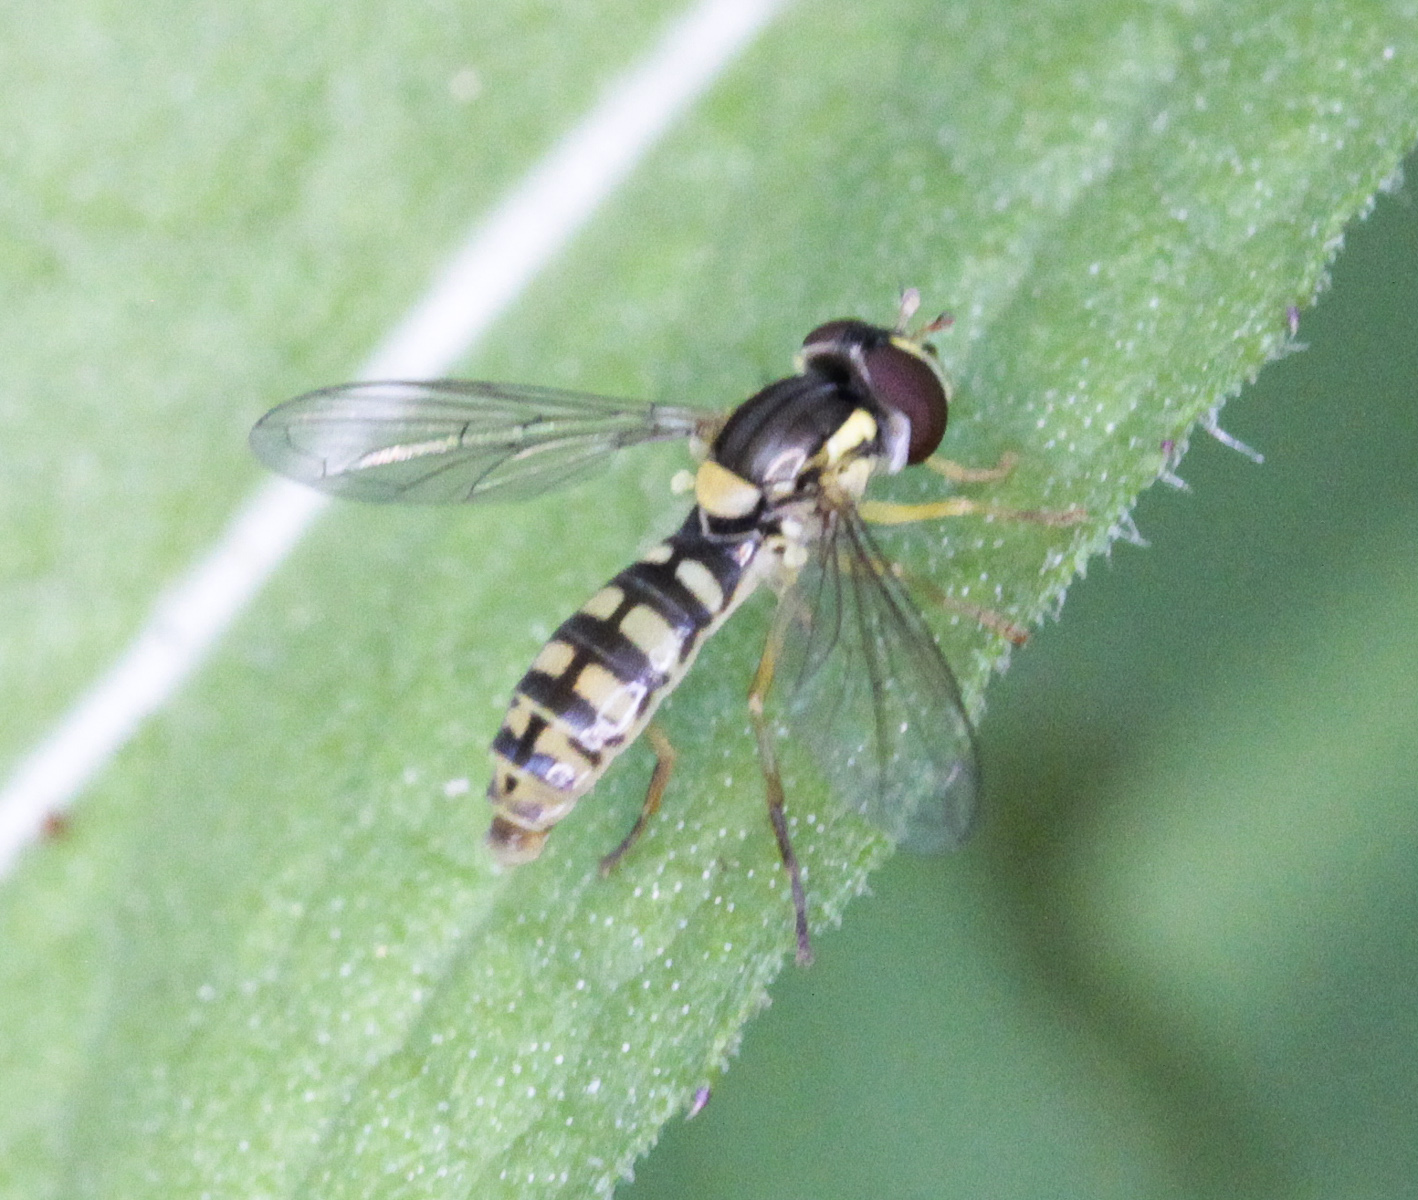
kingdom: Animalia
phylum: Arthropoda
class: Insecta
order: Diptera
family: Syrphidae
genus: Sphaerophoria
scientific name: Sphaerophoria
